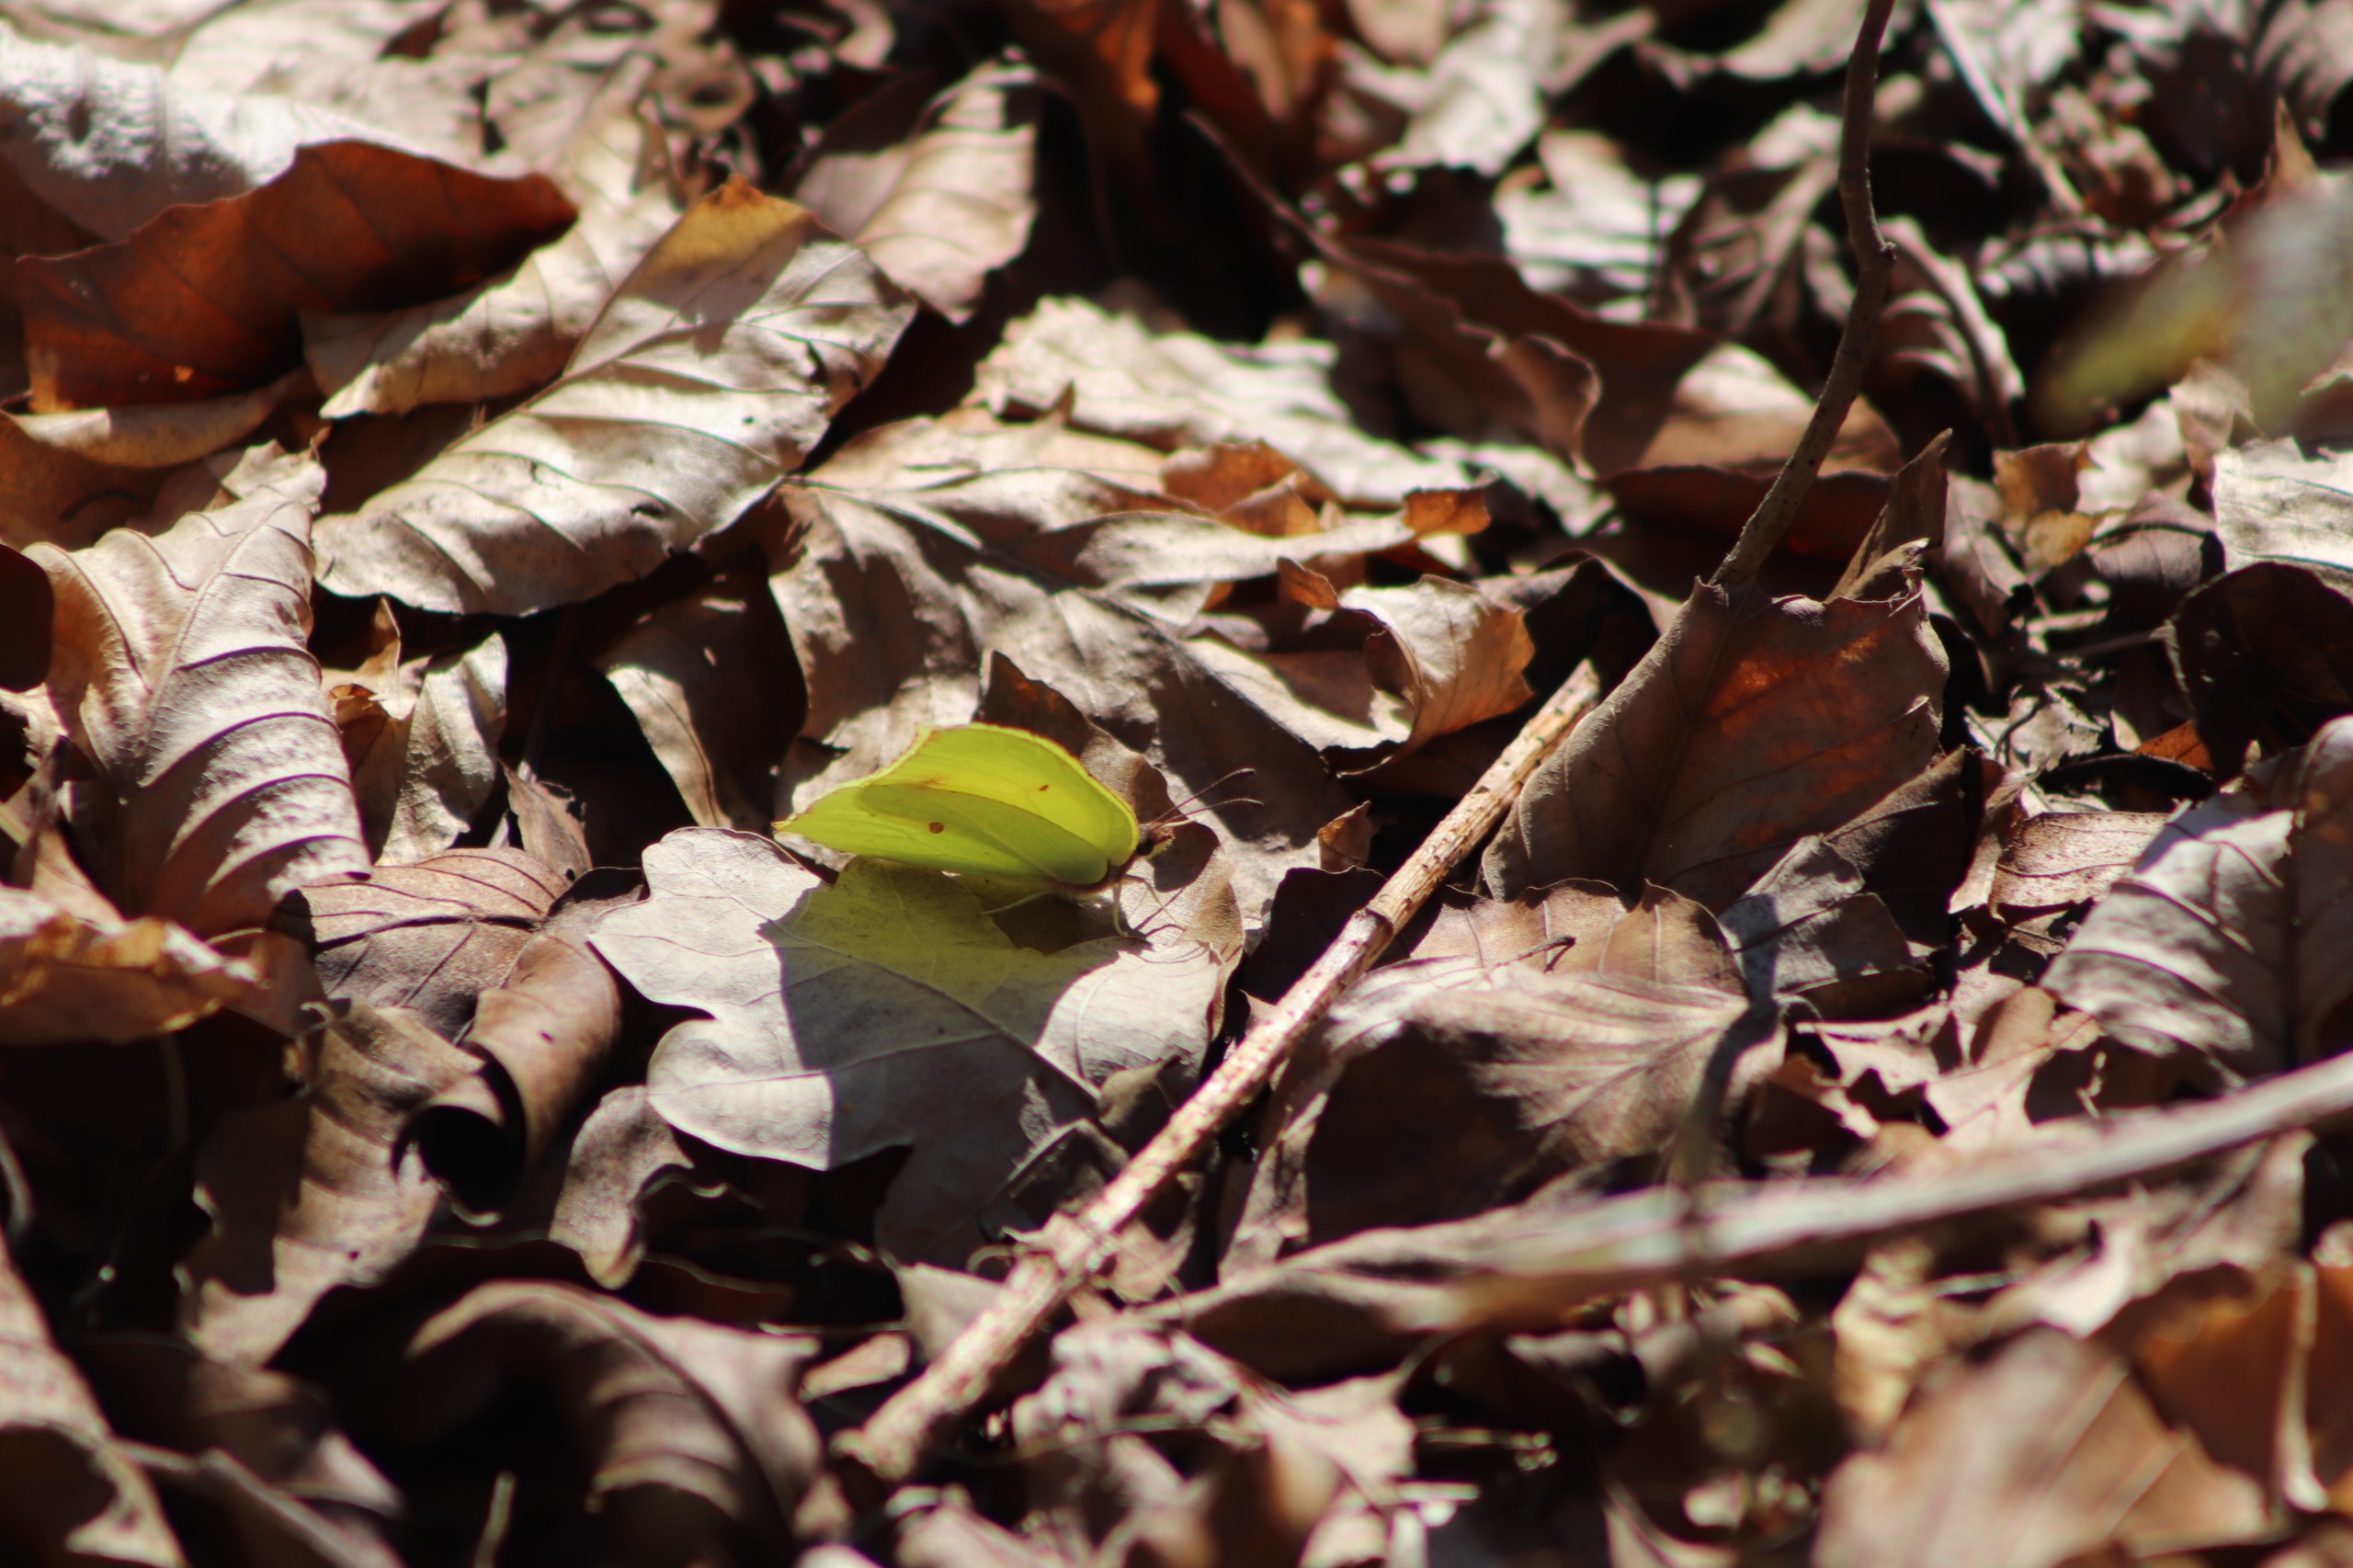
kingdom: Animalia
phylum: Arthropoda
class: Insecta
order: Lepidoptera
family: Pieridae
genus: Gonepteryx
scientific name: Gonepteryx rhamni
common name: Citronsommerfugl
